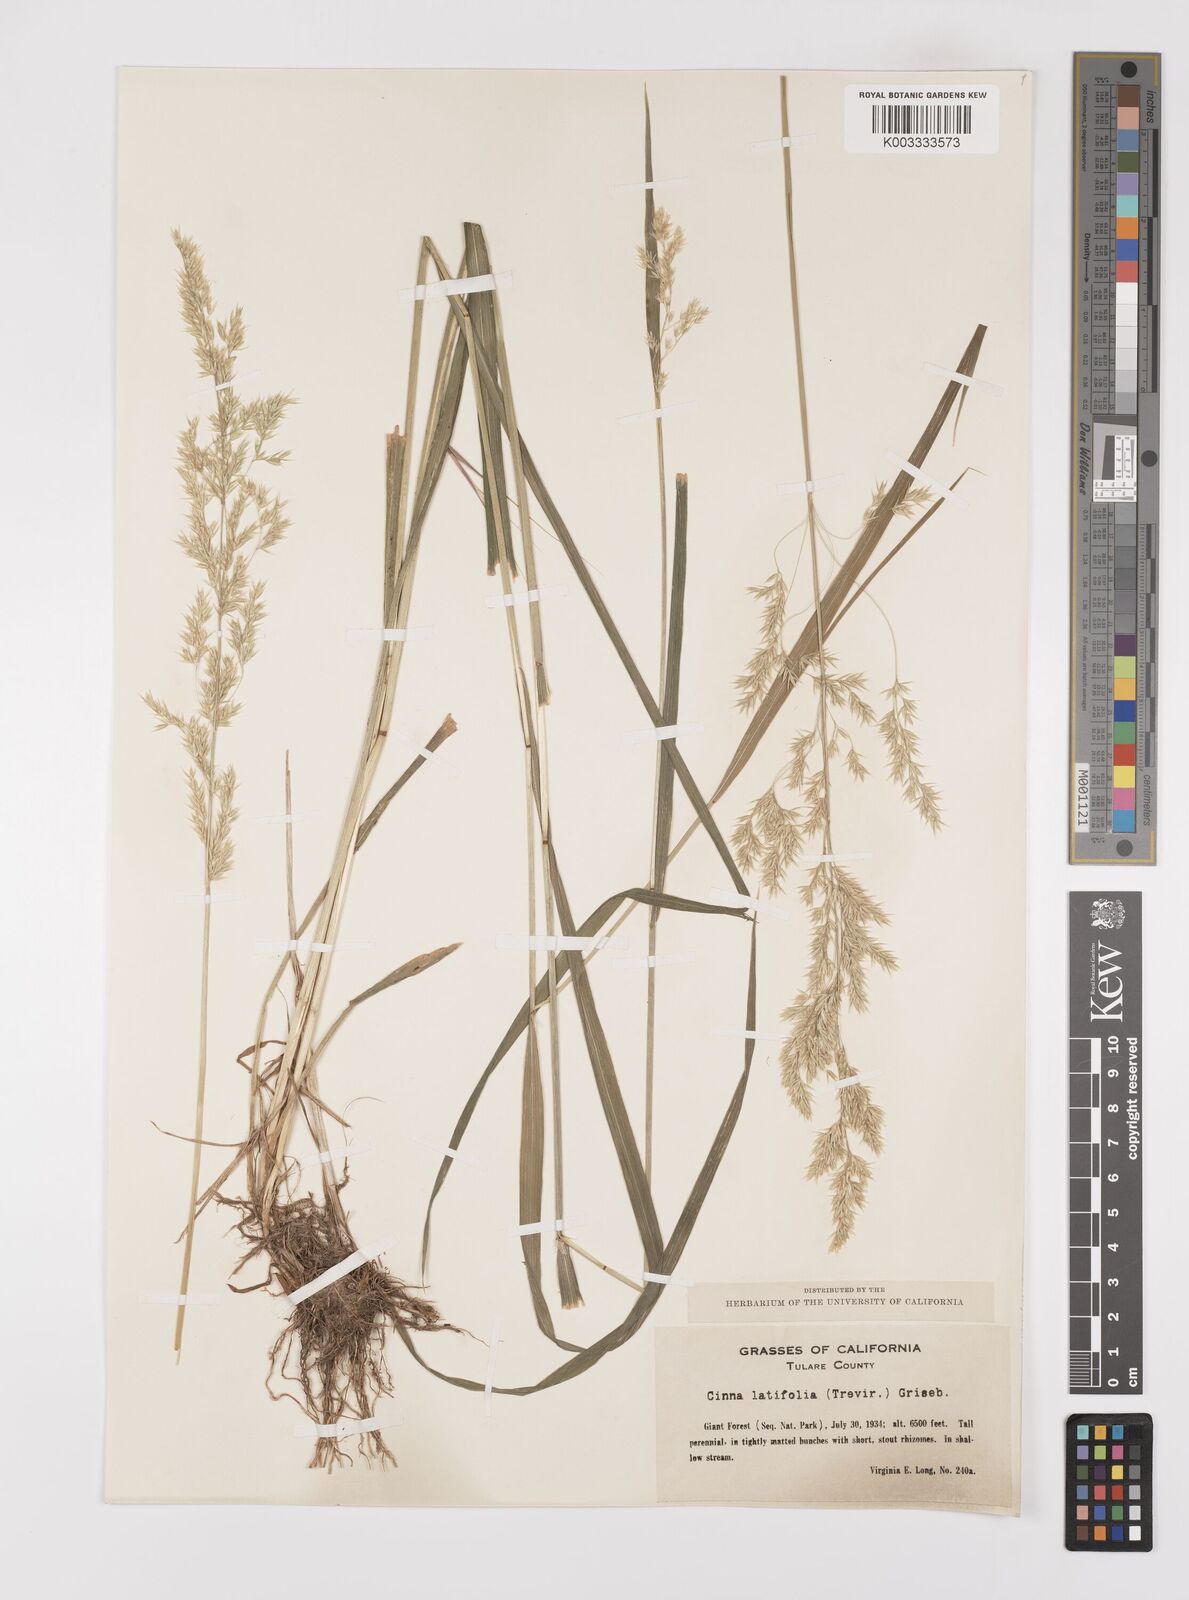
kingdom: Plantae
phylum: Tracheophyta
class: Liliopsida
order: Poales
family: Poaceae
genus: Cinna
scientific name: Cinna latifolia
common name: Drooping woodreed
